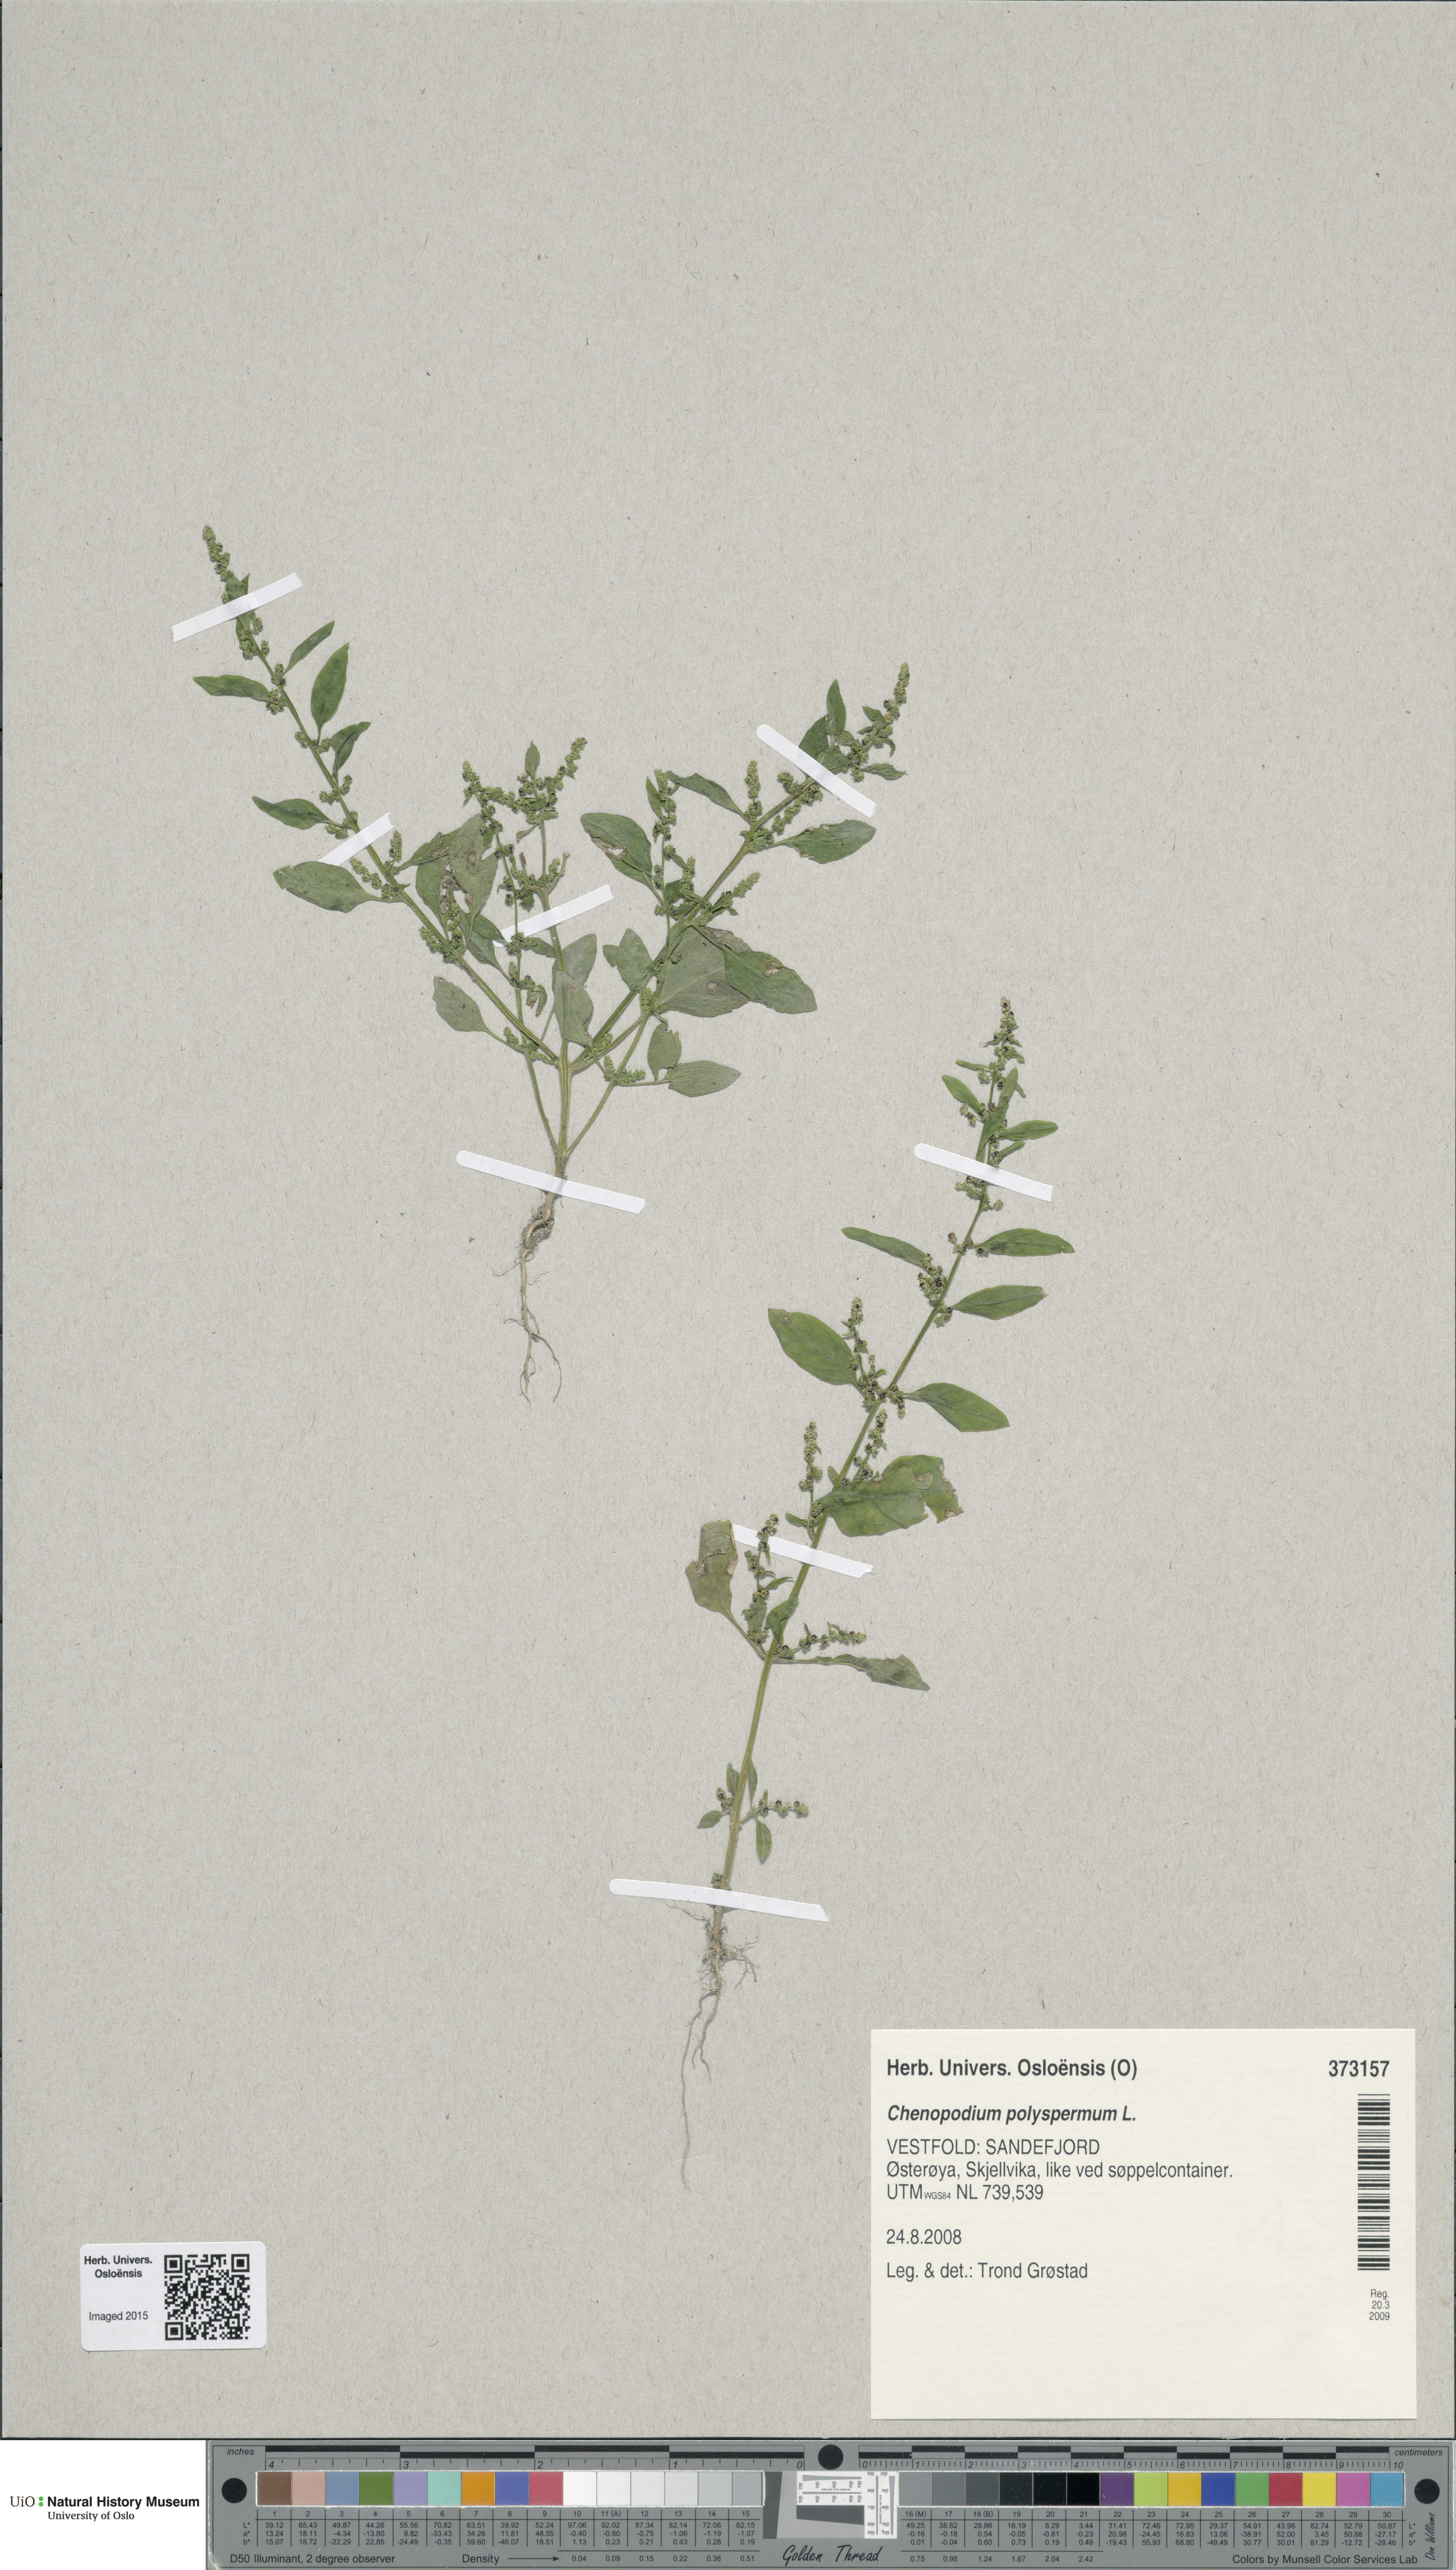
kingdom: Plantae
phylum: Tracheophyta
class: Magnoliopsida
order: Caryophyllales
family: Amaranthaceae
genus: Lipandra
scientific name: Lipandra polysperma
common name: Many-seed goosefoot
